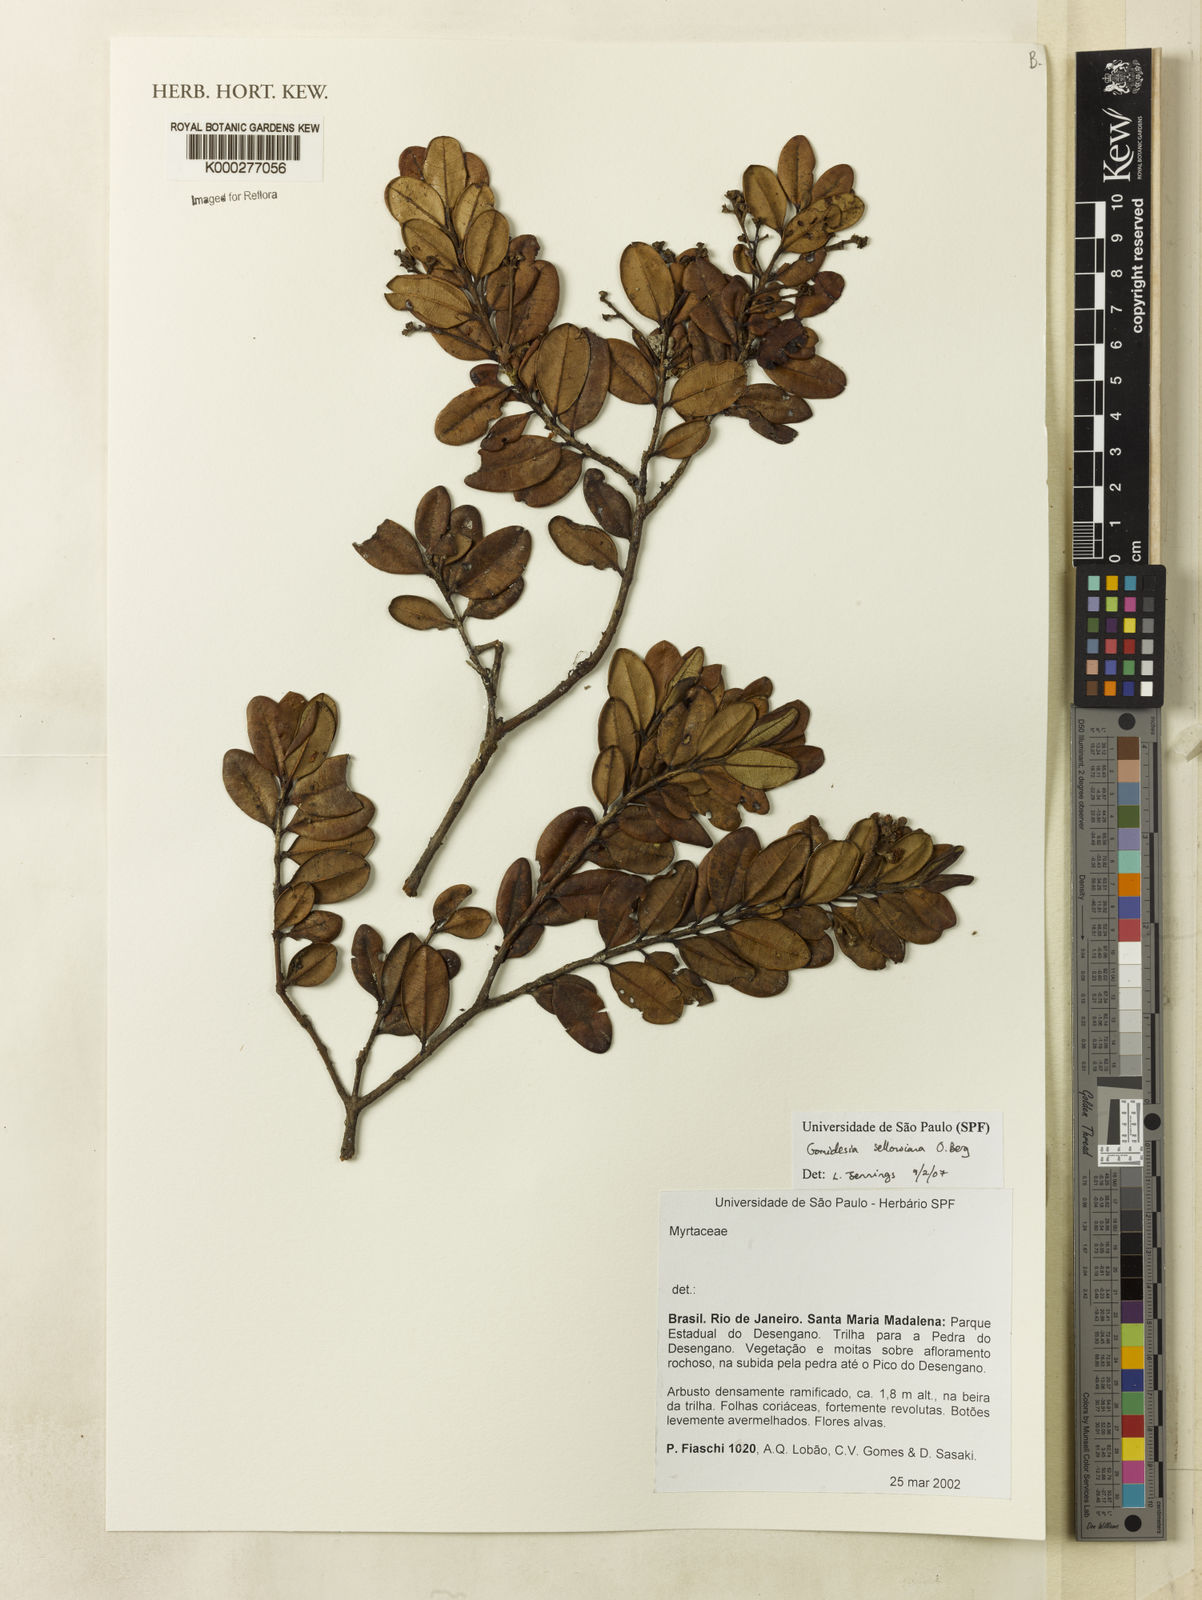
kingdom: Plantae
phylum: Tracheophyta
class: Magnoliopsida
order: Myrtales
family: Myrtaceae
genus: Myrcia
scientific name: Myrcia hartwegiana
